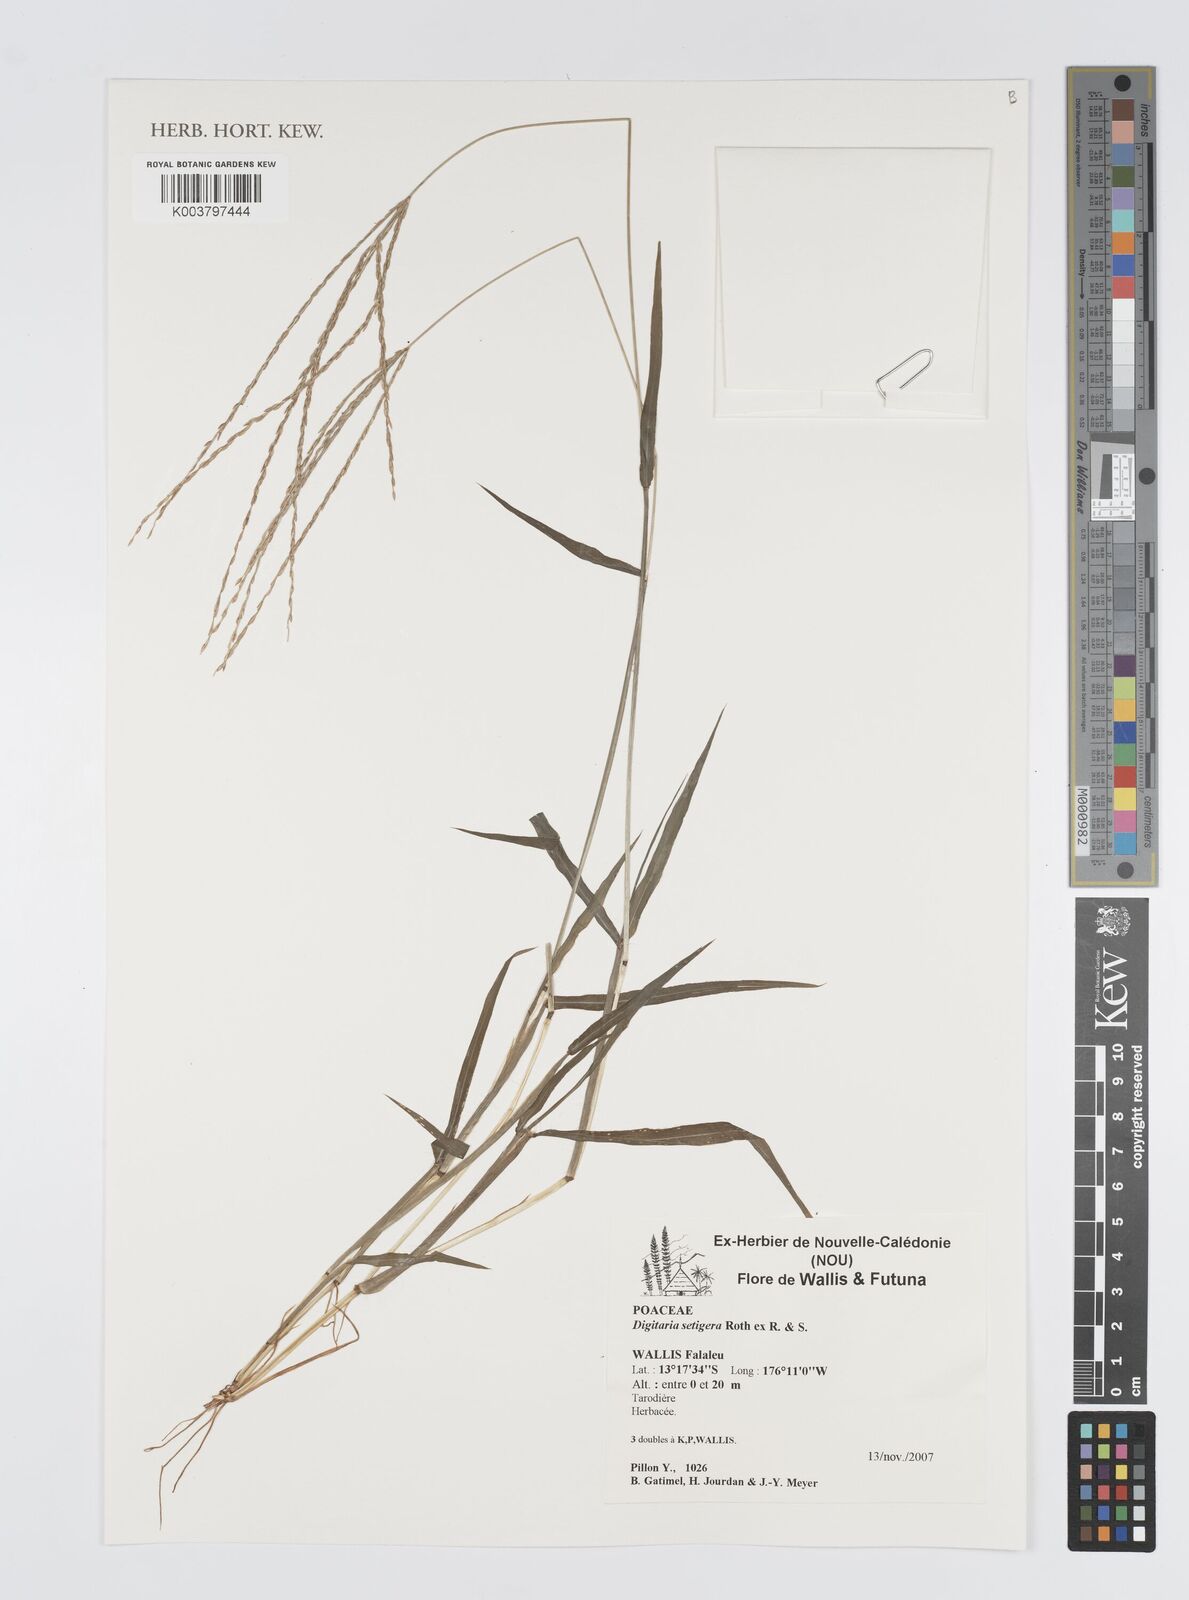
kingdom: Plantae
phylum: Tracheophyta
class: Liliopsida
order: Poales
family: Poaceae
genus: Digitaria
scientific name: Digitaria setigera
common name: East indian crabgrass
